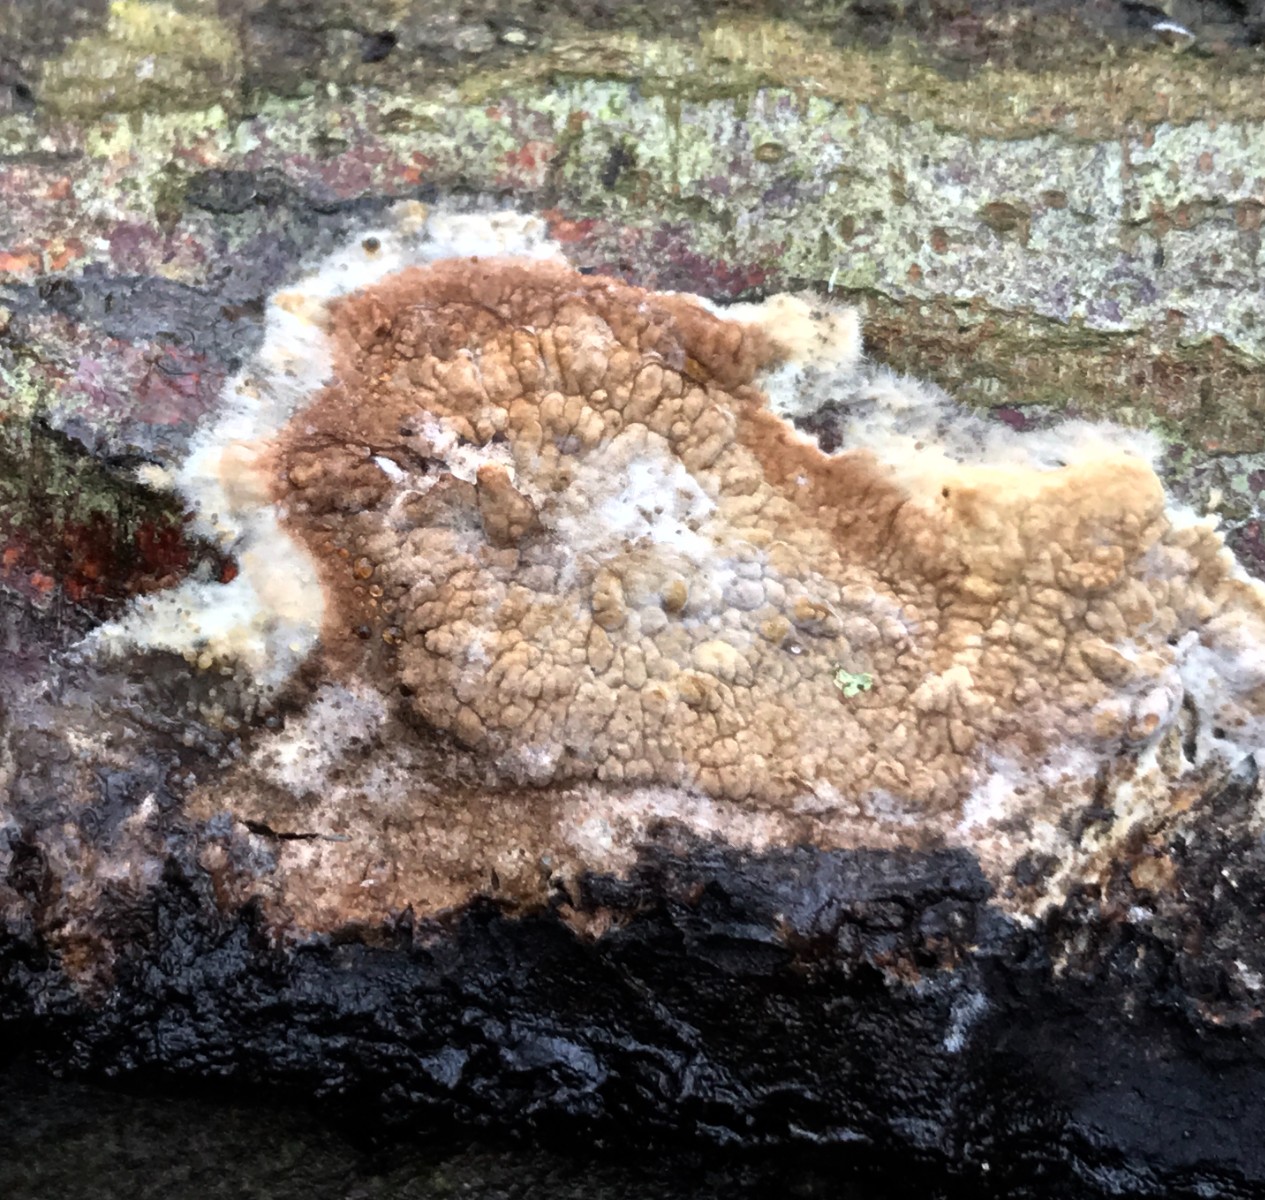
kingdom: Fungi
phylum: Basidiomycota
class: Agaricomycetes
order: Boletales
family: Coniophoraceae
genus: Coniophora
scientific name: Coniophora puteana
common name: gul tømmersvamp
